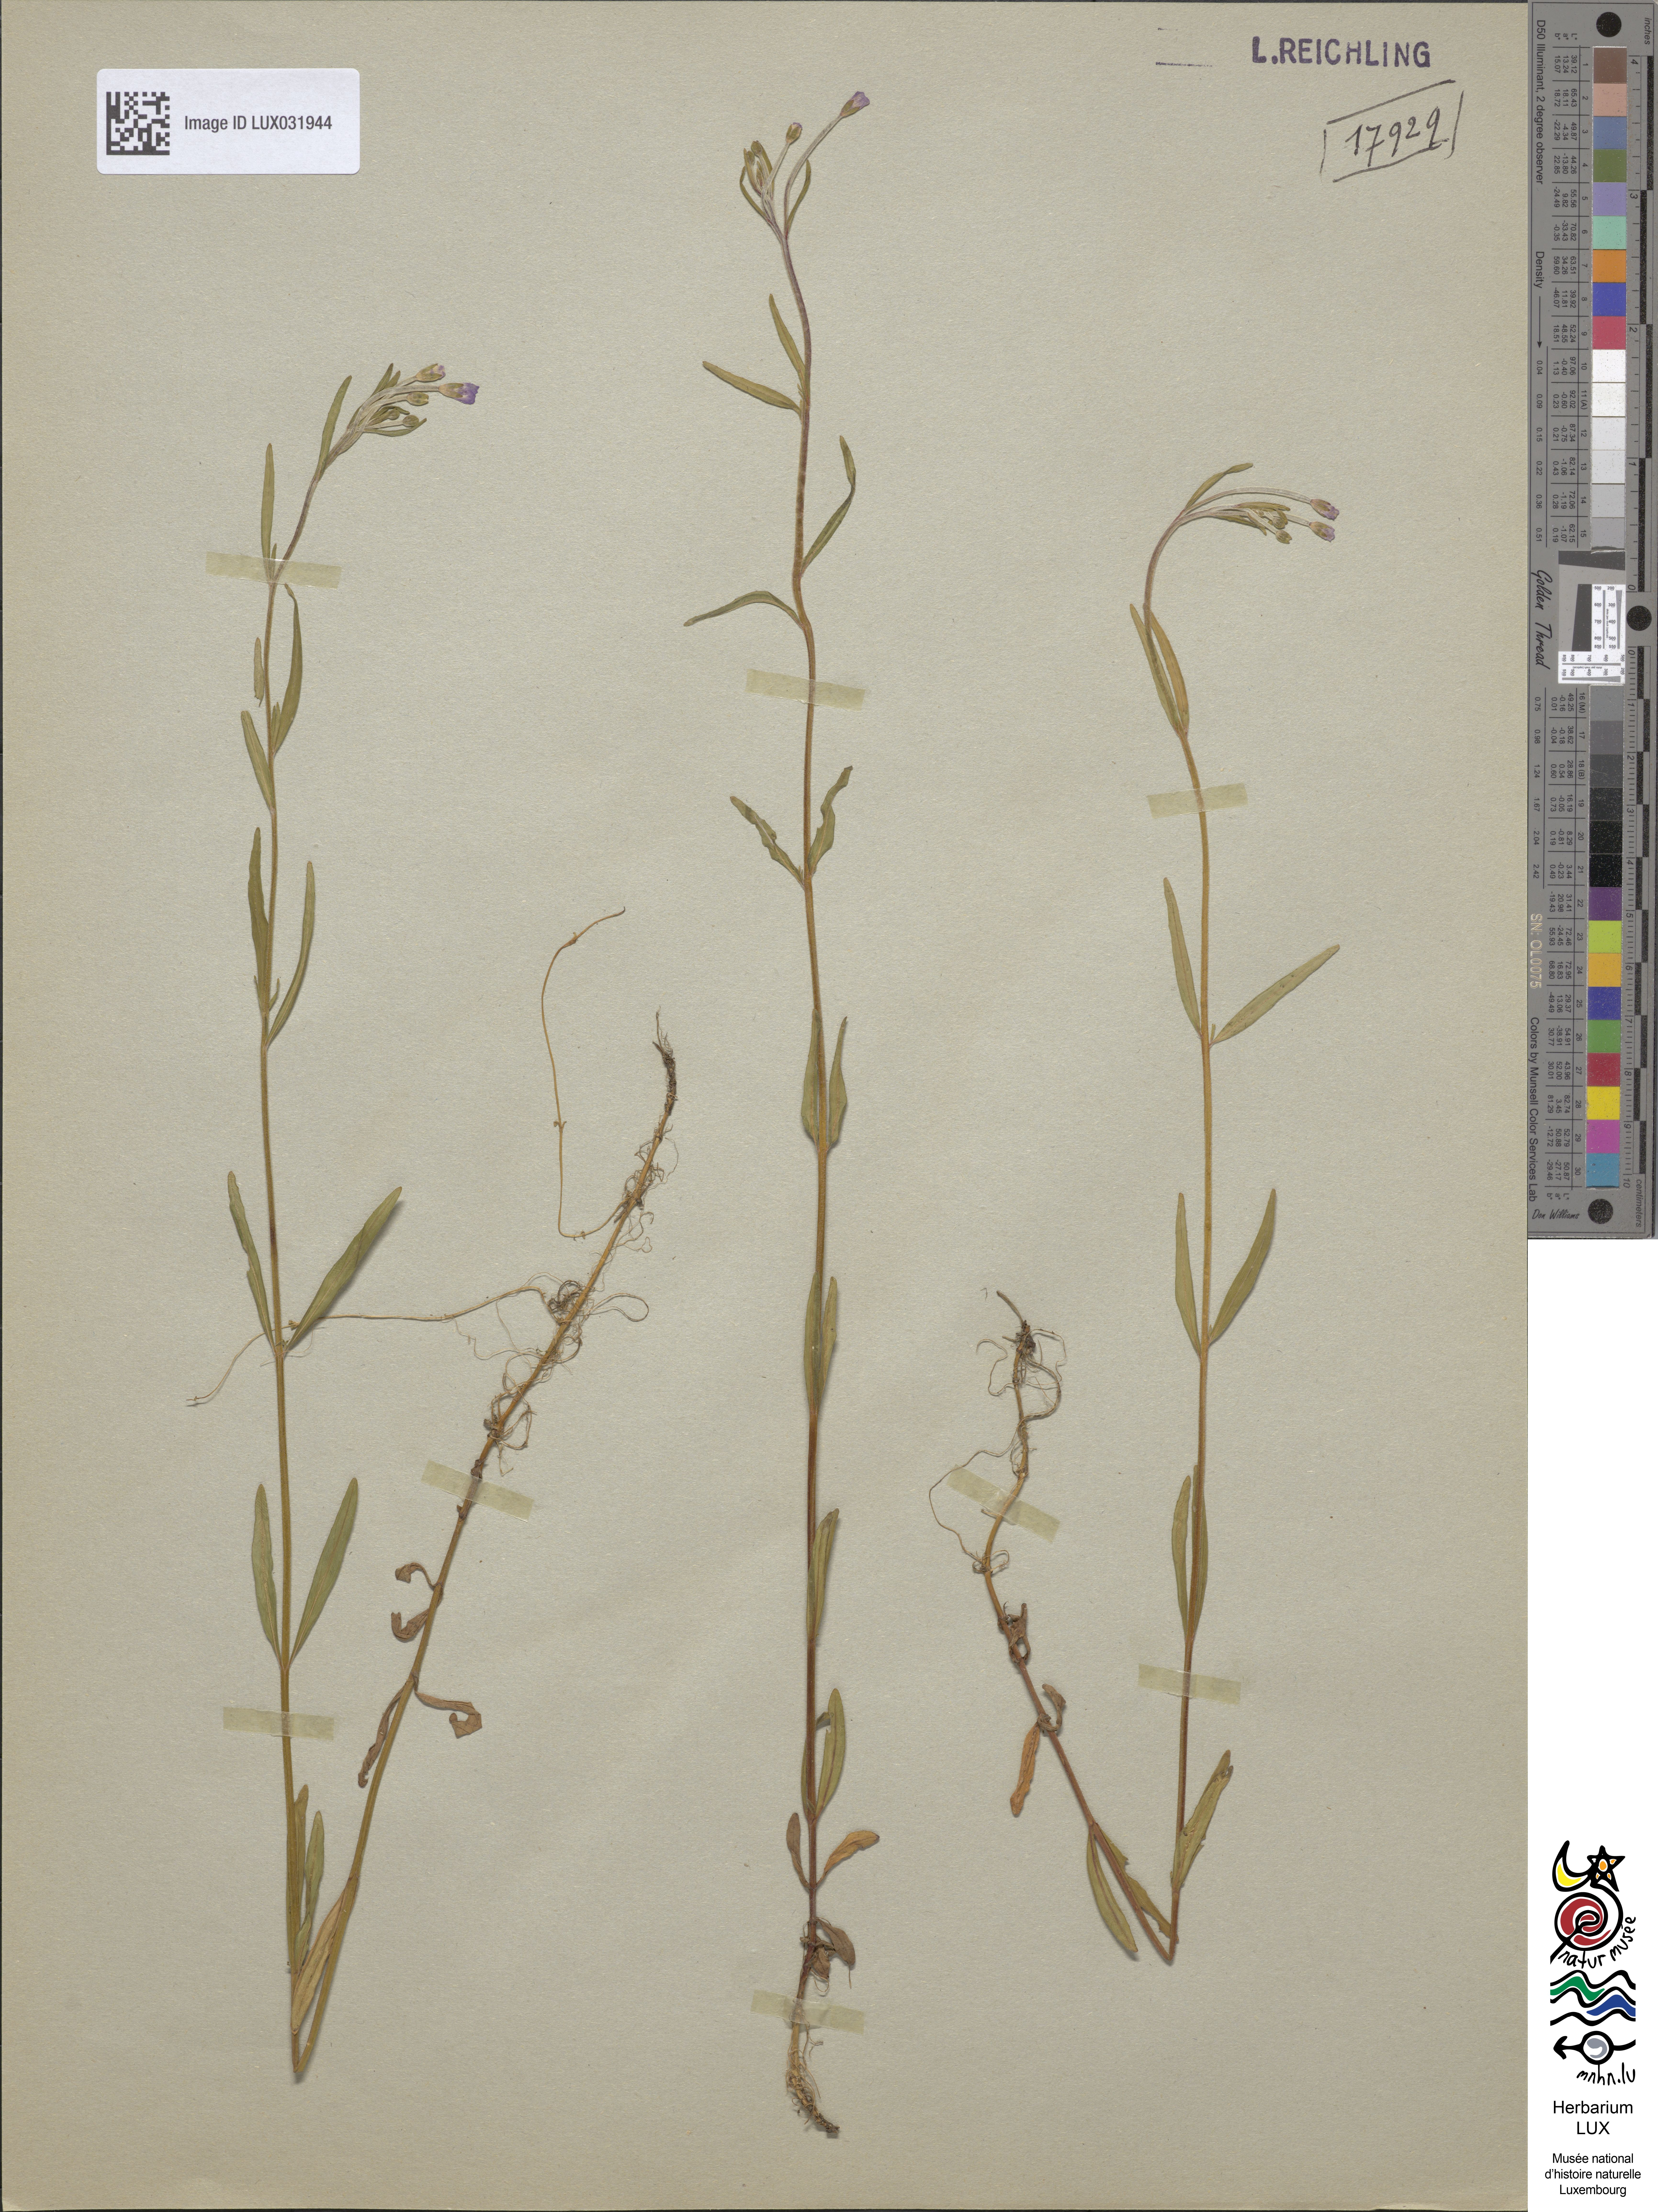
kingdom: Plantae
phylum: Tracheophyta
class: Magnoliopsida
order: Myrtales
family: Onagraceae
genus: Epilobium
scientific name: Epilobium palustre
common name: Marsh willowherb
